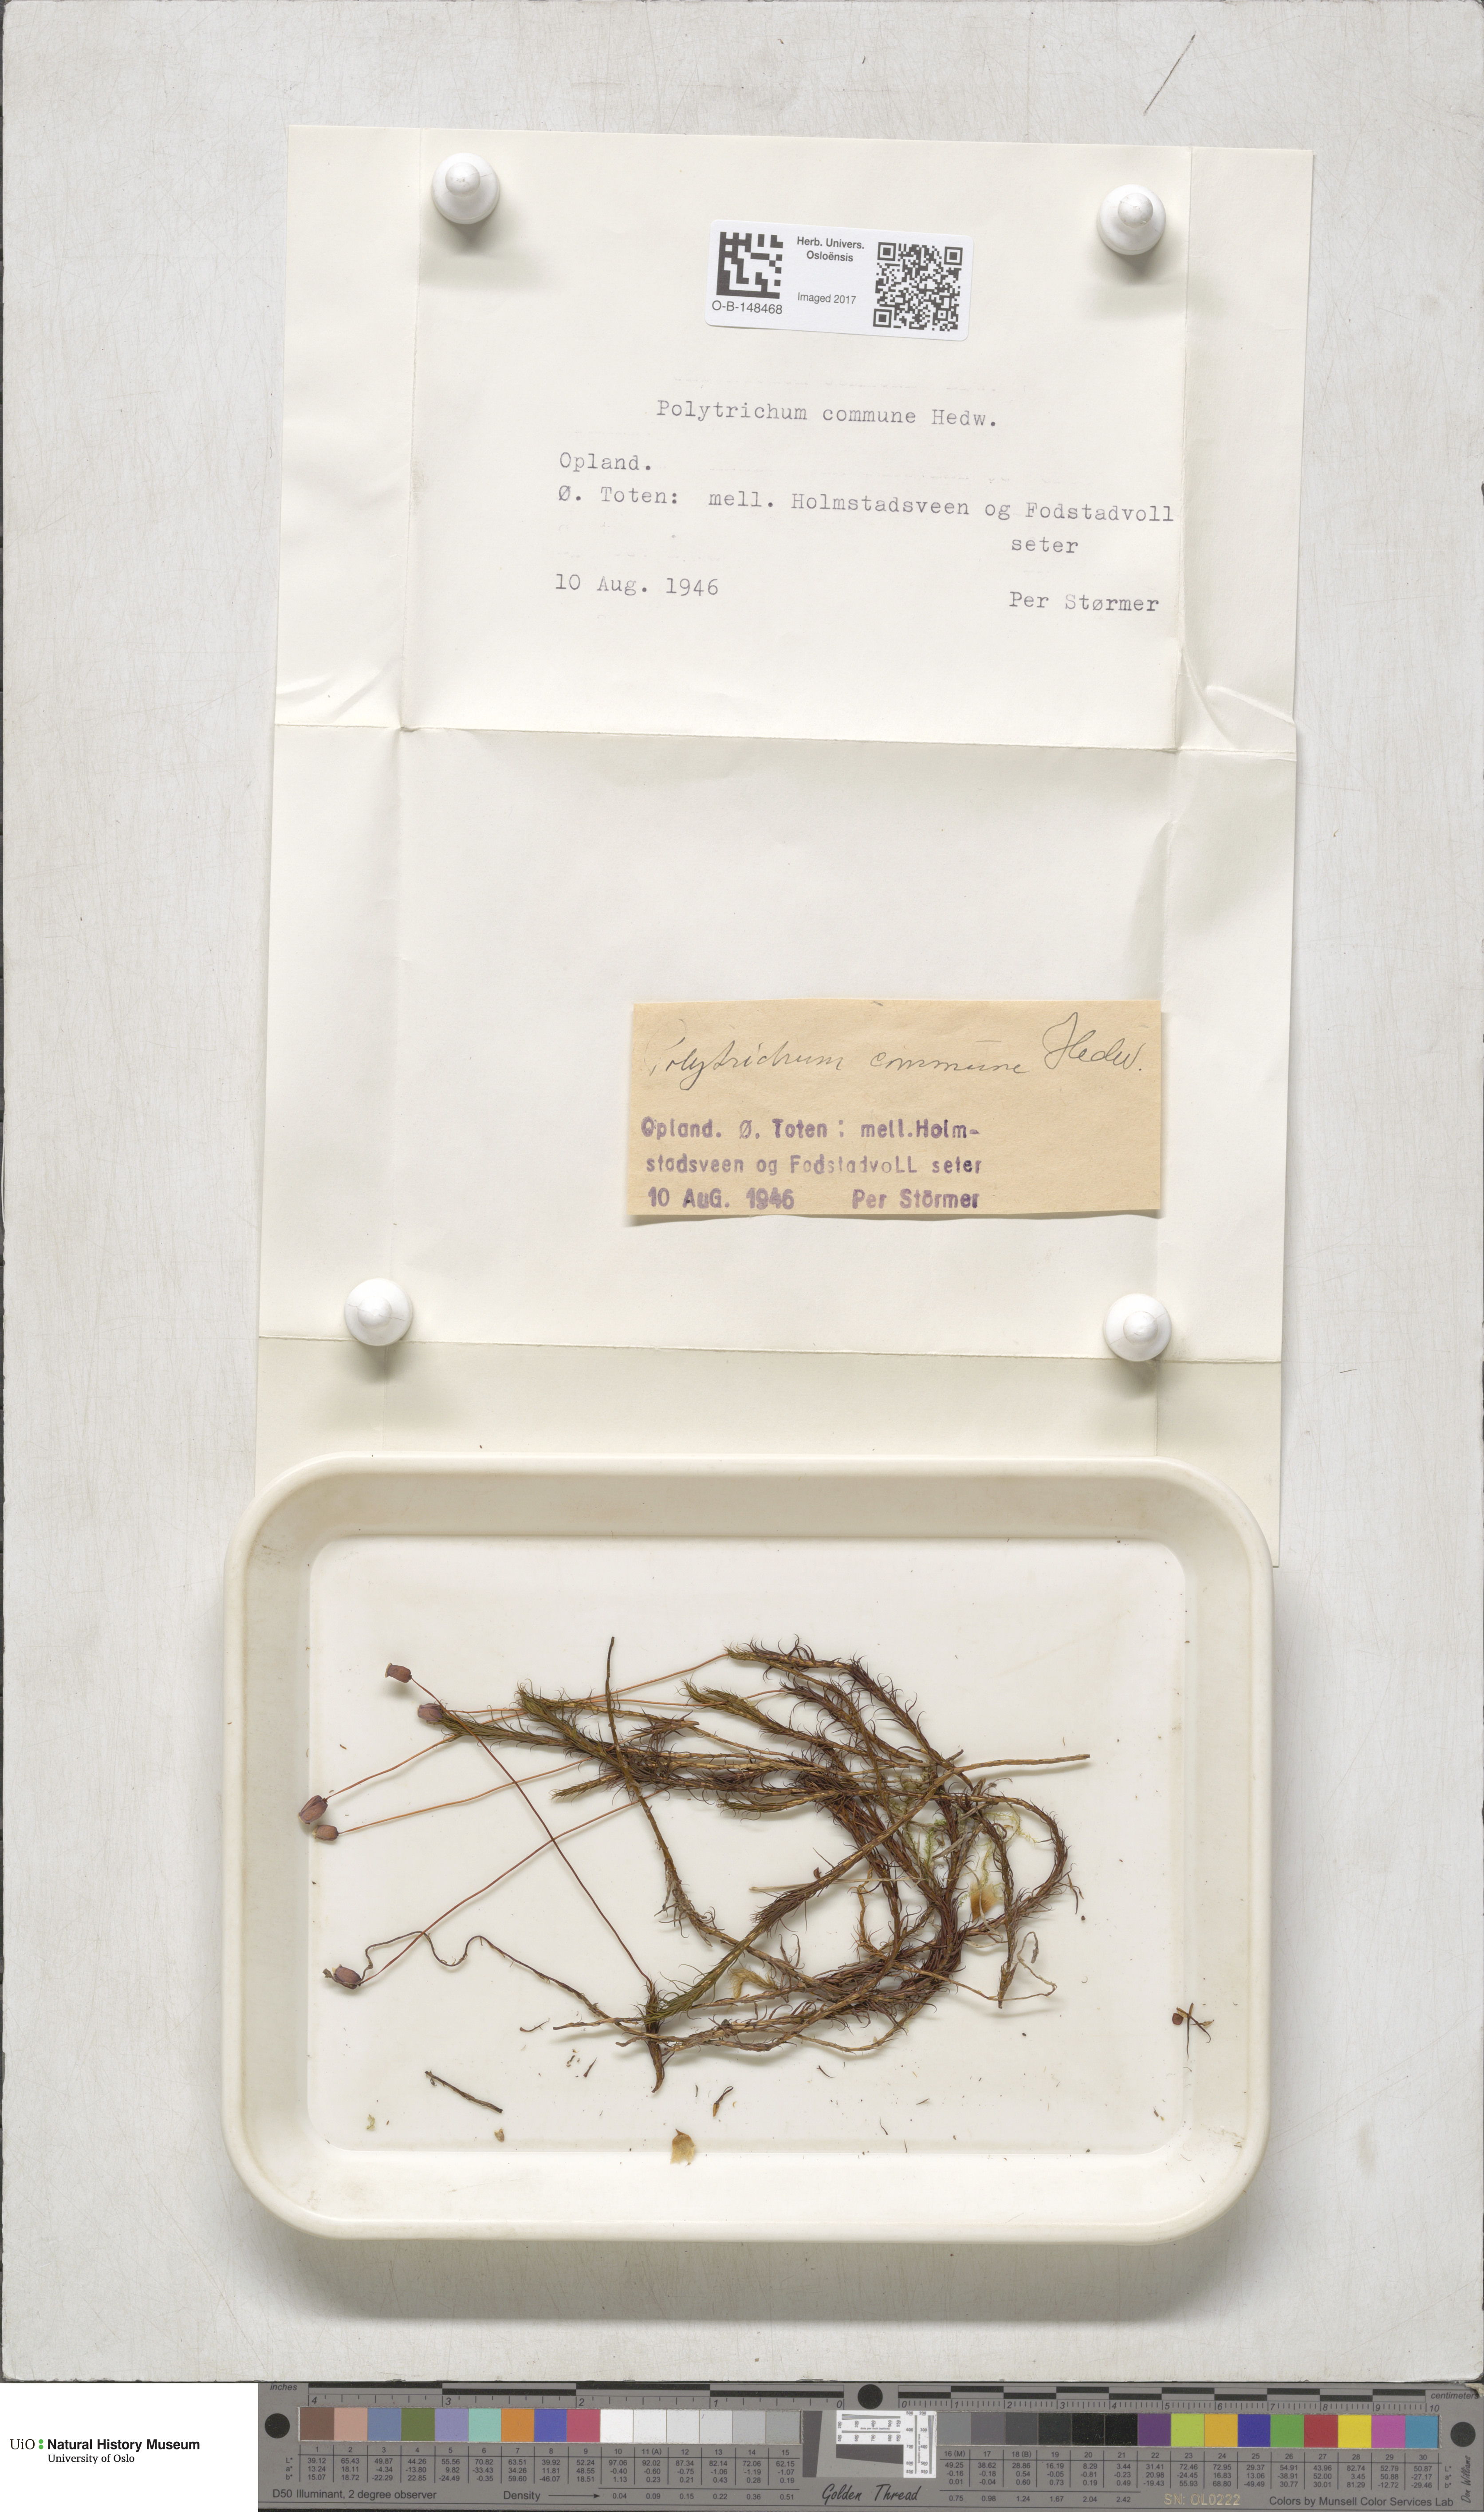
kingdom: Plantae
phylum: Bryophyta
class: Polytrichopsida
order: Polytrichales
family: Polytrichaceae
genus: Polytrichum
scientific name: Polytrichum commune
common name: Common haircap
